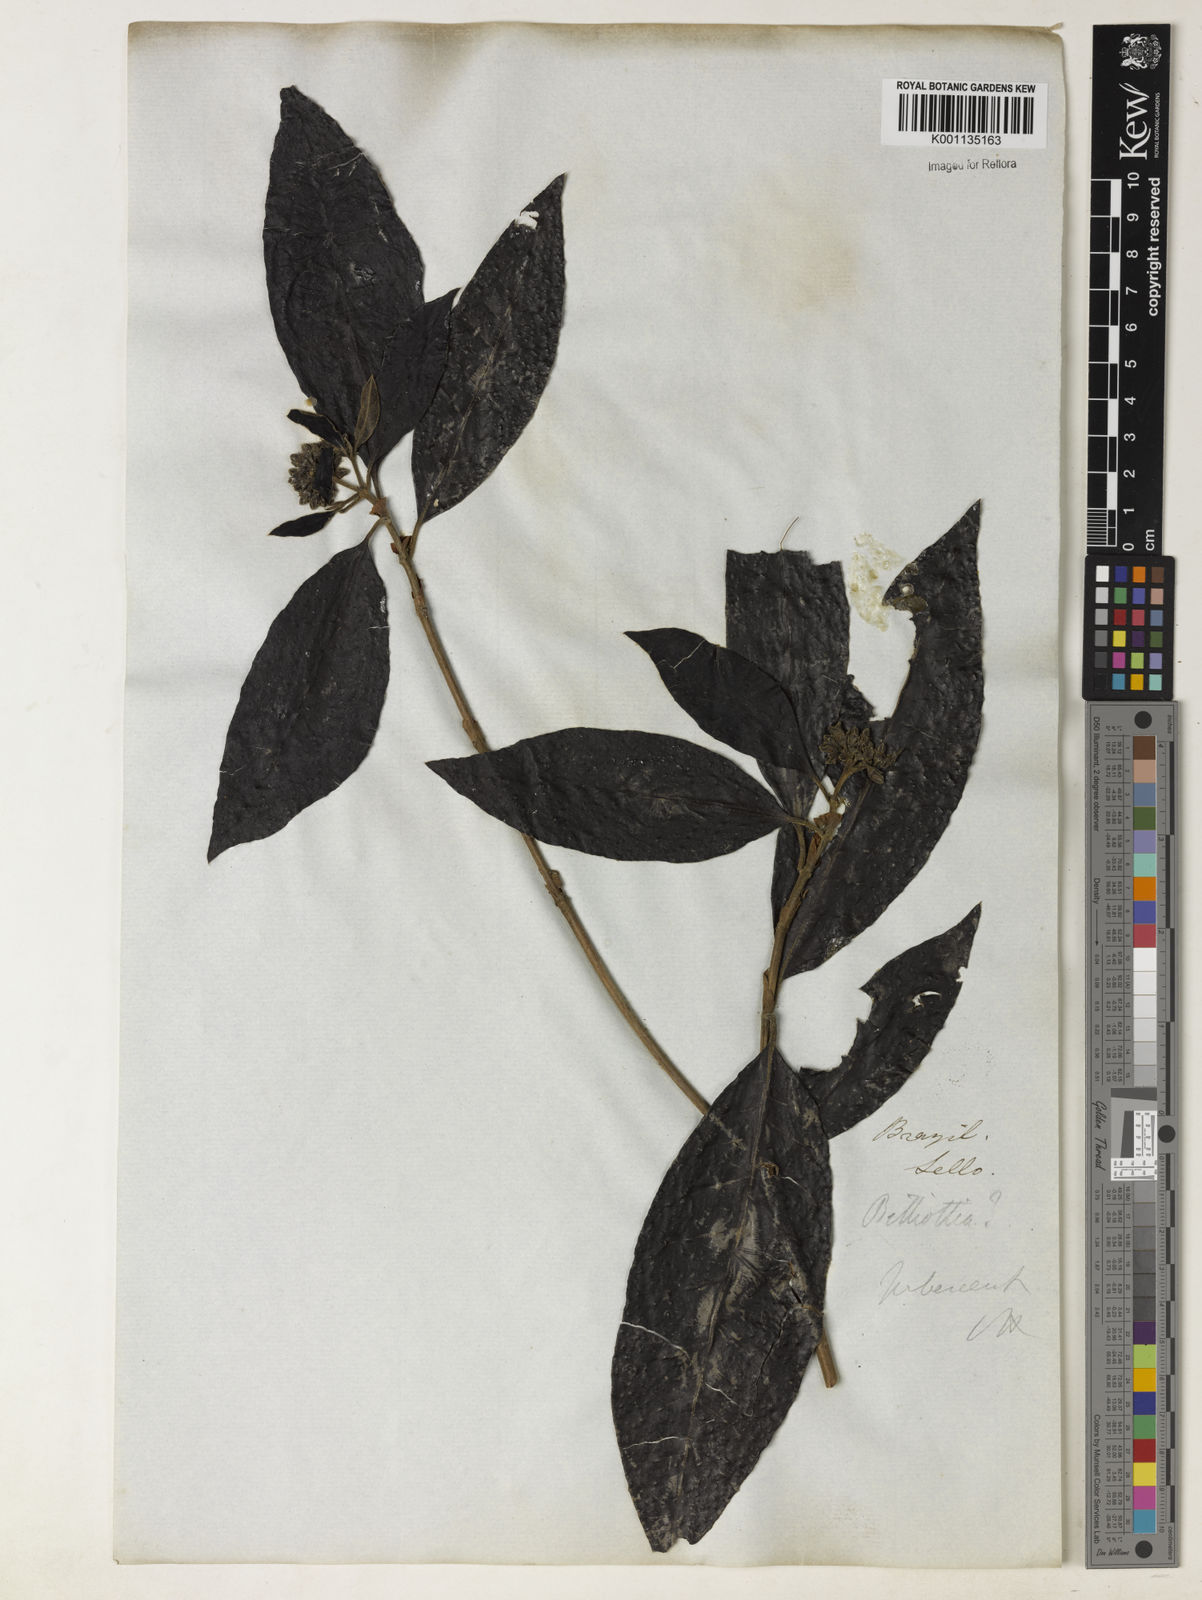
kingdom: Plantae
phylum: Tracheophyta
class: Magnoliopsida
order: Gentianales
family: Rubiaceae
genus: Melanopsidium
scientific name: Melanopsidium nigrum
